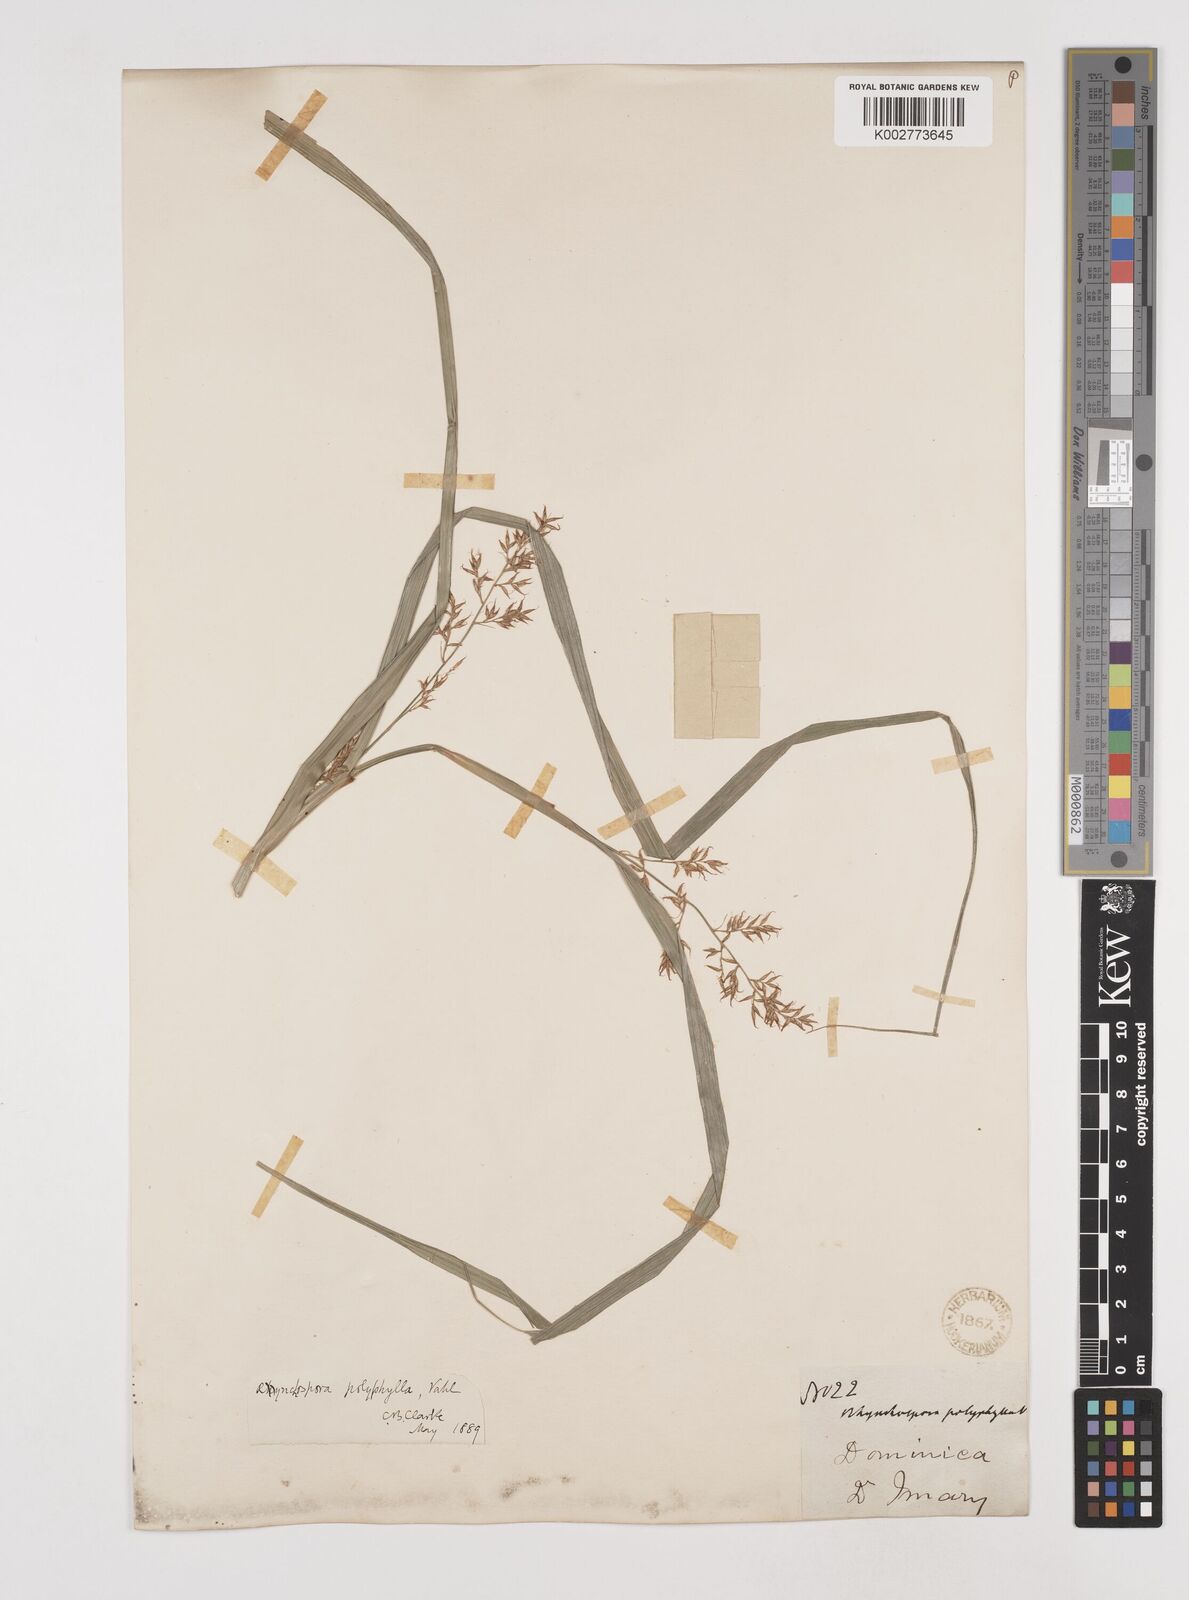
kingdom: Plantae
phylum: Tracheophyta
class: Liliopsida
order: Poales
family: Cyperaceae
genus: Rhynchospora
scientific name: Rhynchospora polyphylla
